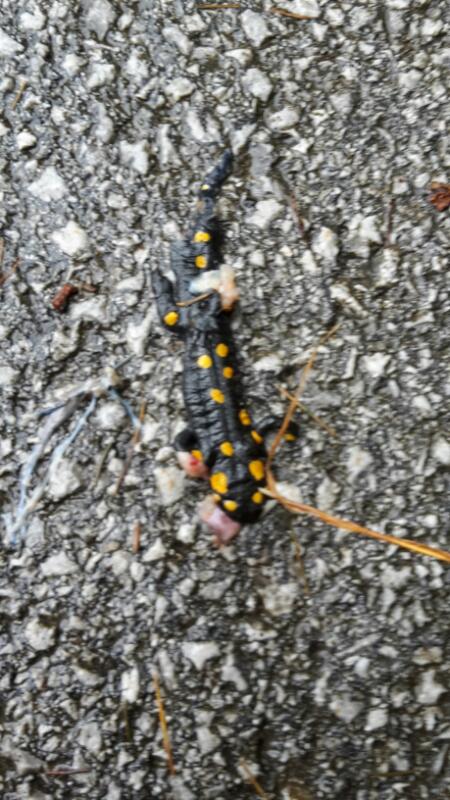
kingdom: Animalia
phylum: Chordata
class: Amphibia
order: Caudata
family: Salamandridae
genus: Salamandra
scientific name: Salamandra salamandra
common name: Fire salamander
